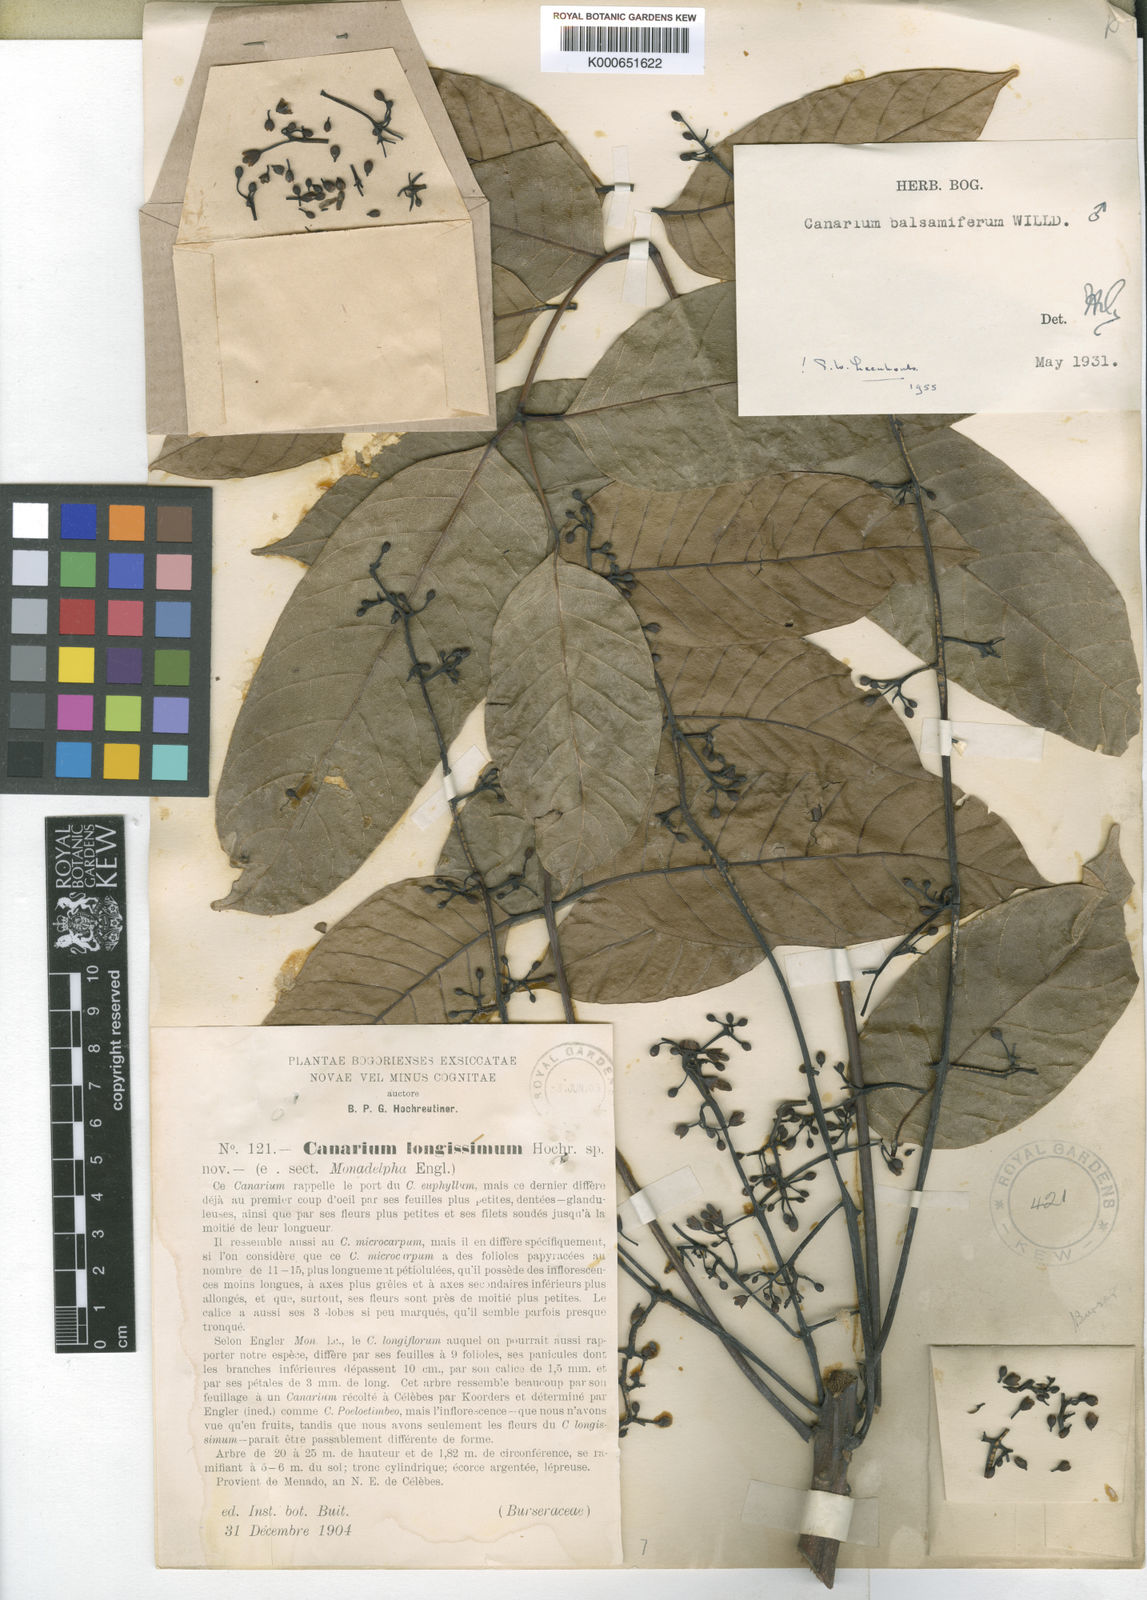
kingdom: Plantae
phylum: Tracheophyta
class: Magnoliopsida
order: Sapindales
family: Burseraceae
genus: Canarium
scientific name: Canarium balsamiferum
